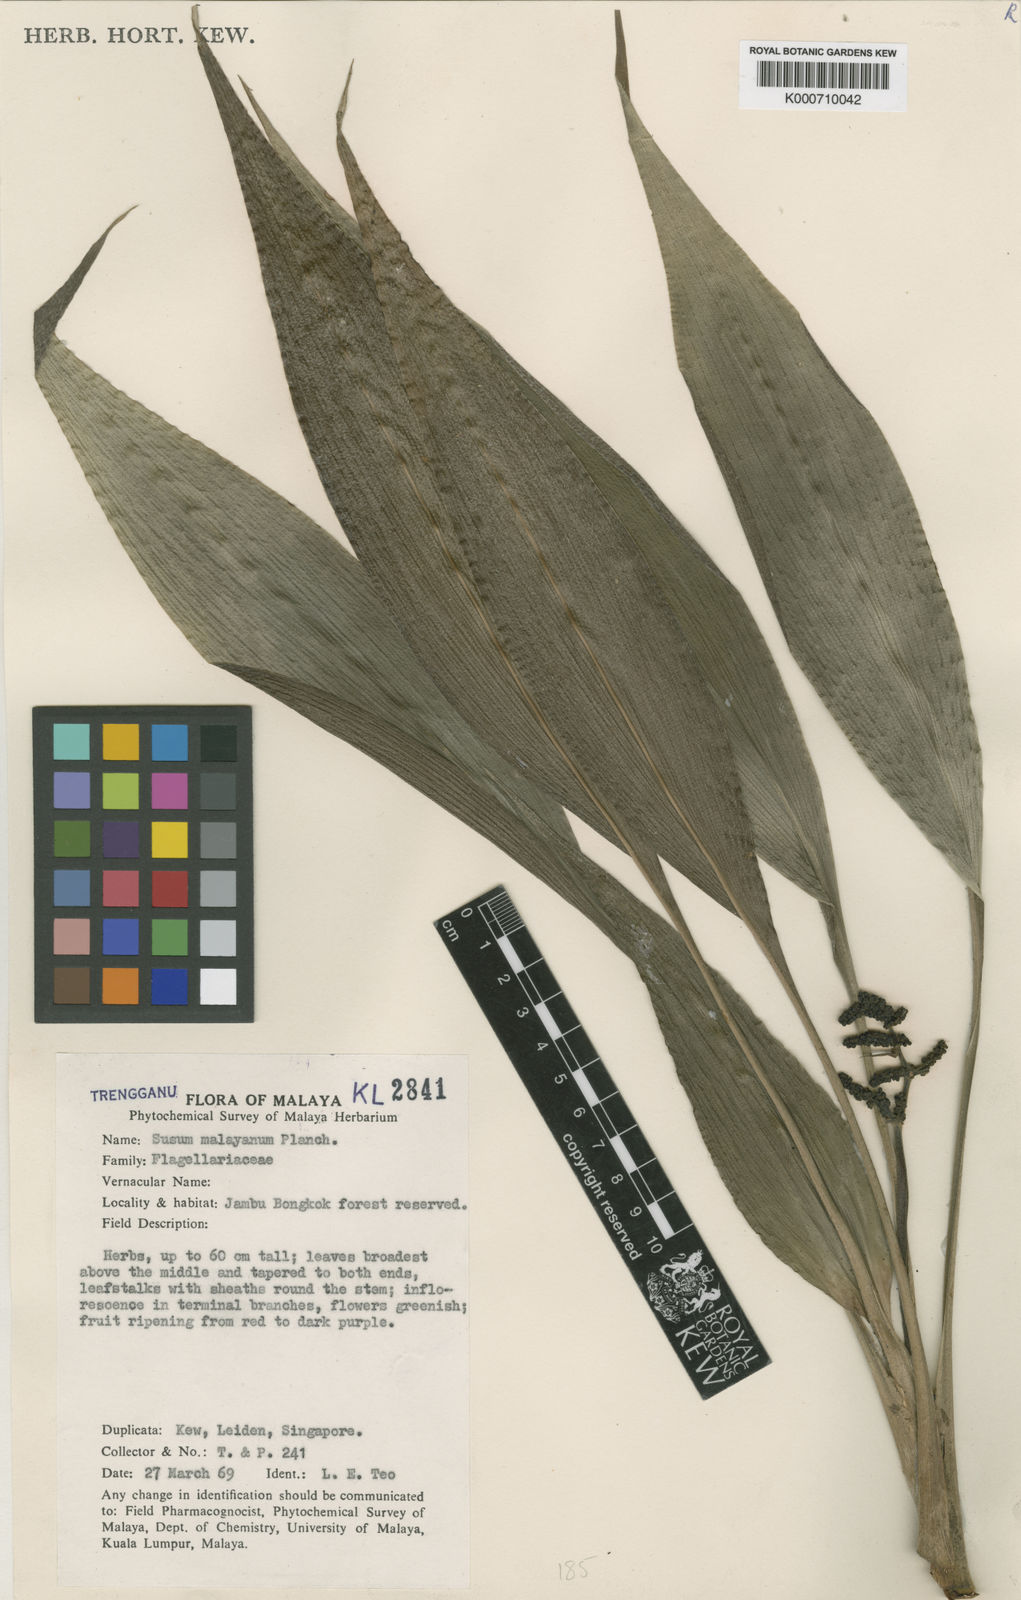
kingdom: Plantae
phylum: Tracheophyta
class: Liliopsida
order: Commelinales
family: Hanguanaceae
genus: Hanguana
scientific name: Hanguana malayana
